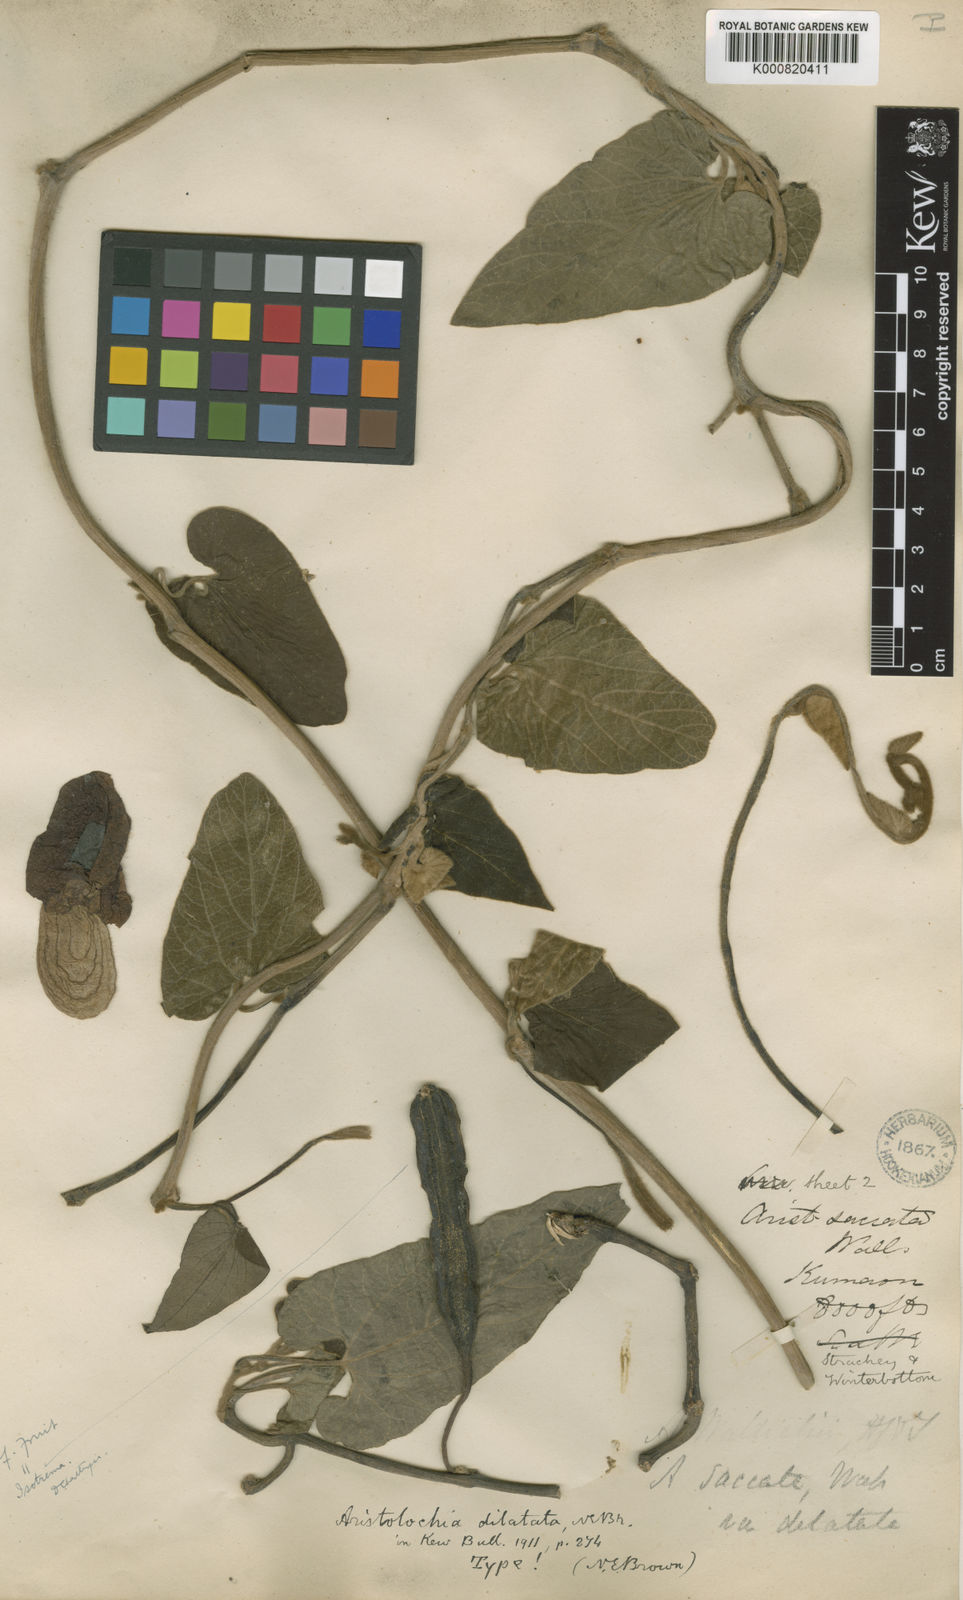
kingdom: Plantae
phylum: Tracheophyta
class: Magnoliopsida
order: Piperales
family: Aristolochiaceae
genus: Isotrema
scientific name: Isotrema
